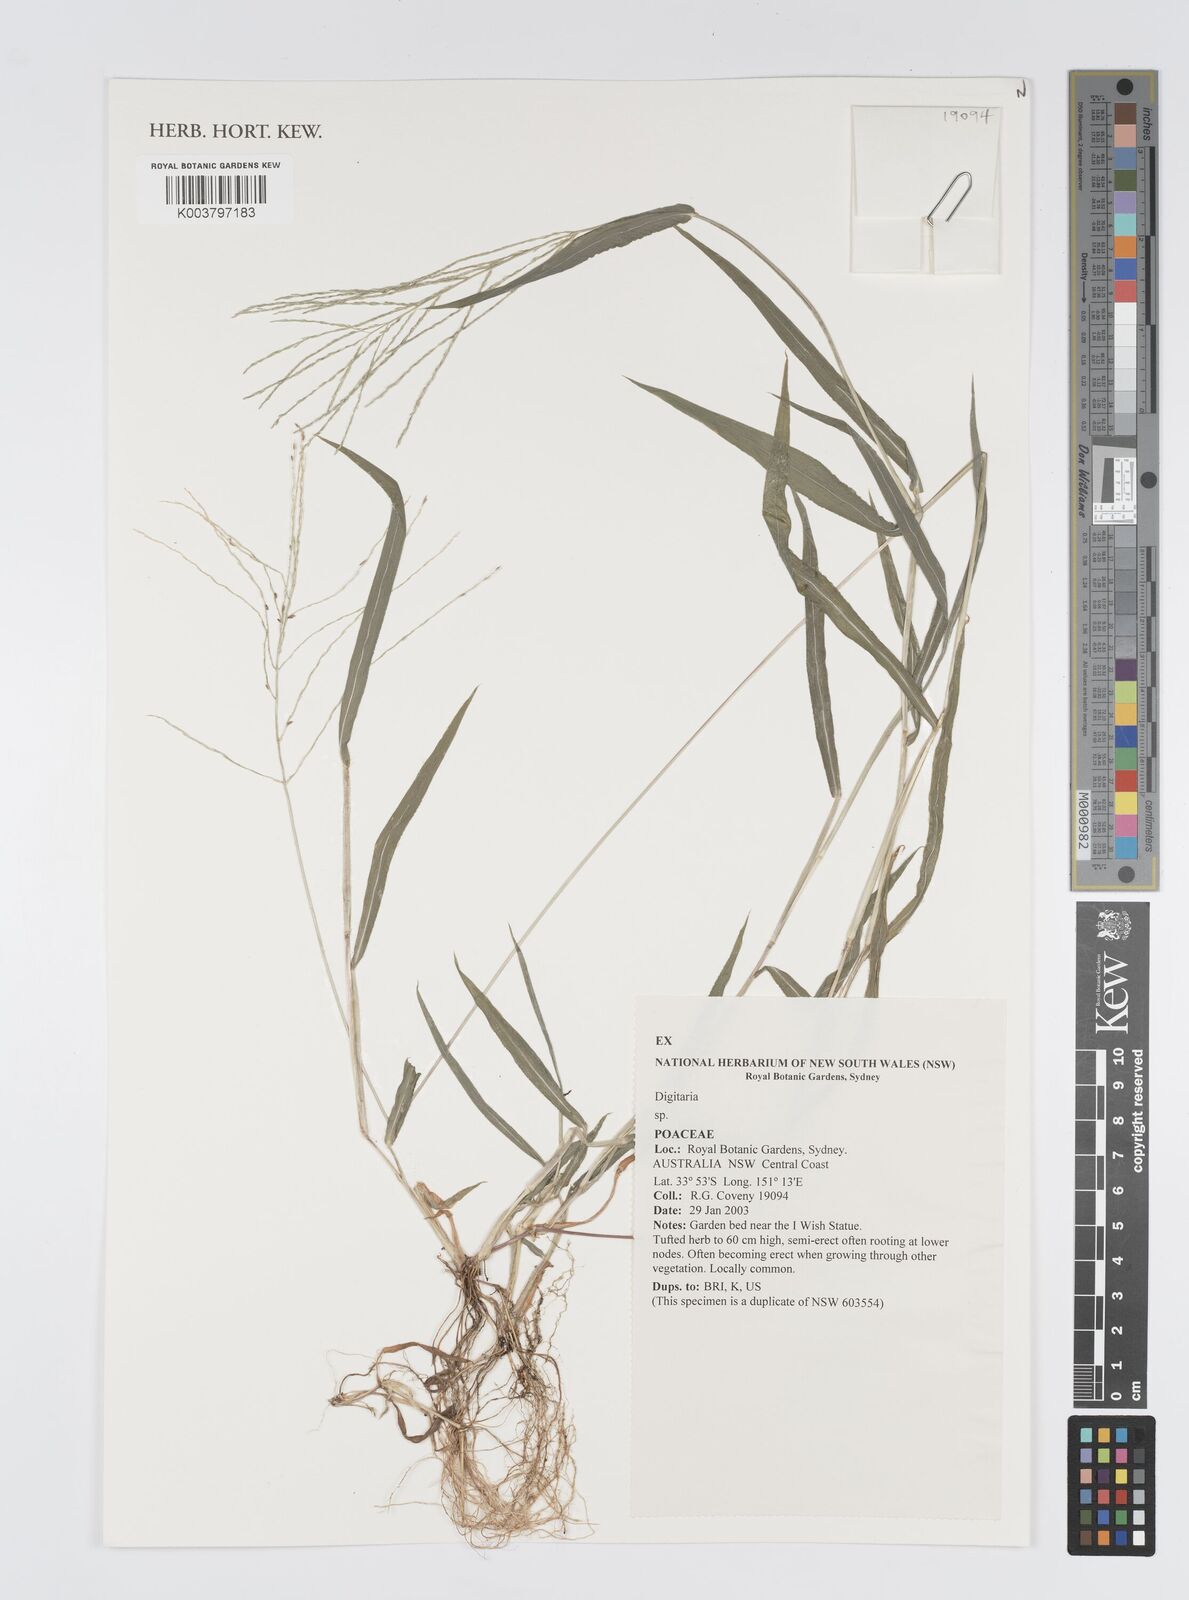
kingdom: Plantae
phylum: Tracheophyta
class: Liliopsida
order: Poales
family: Poaceae
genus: Digitaria
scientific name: Digitaria spec
